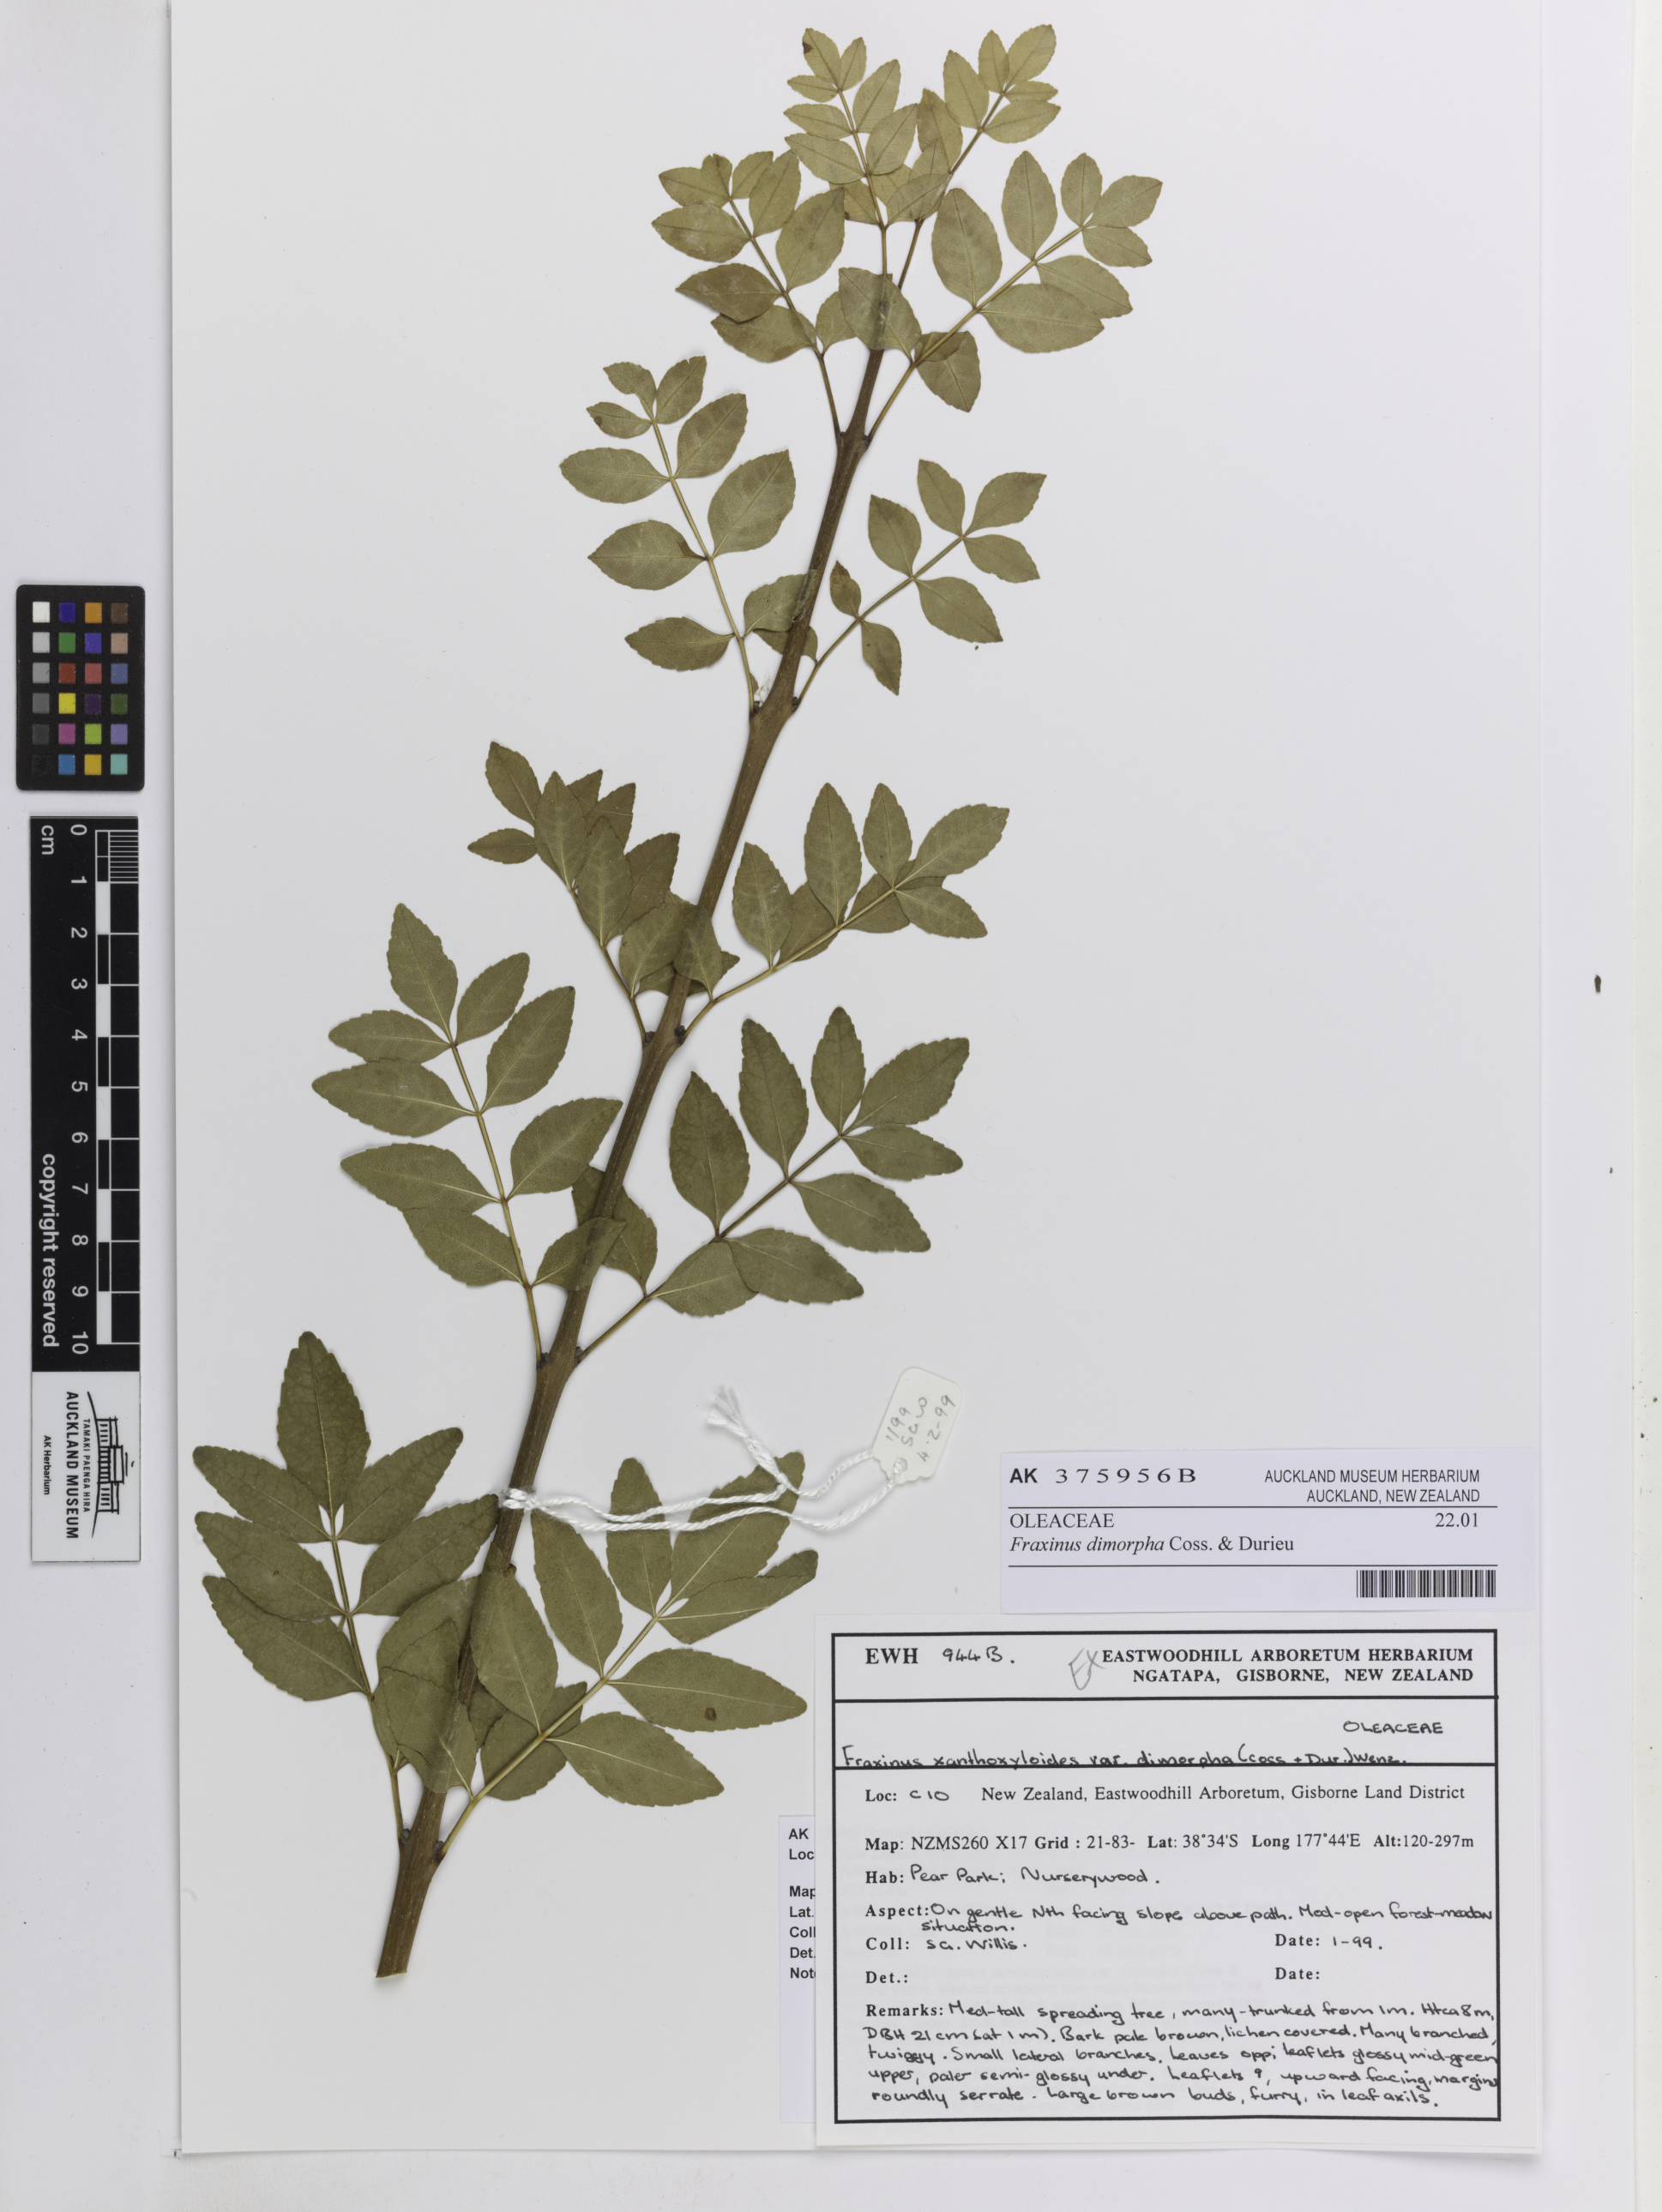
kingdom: Plantae
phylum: Tracheophyta
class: Magnoliopsida
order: Lamiales
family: Oleaceae
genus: Fraxinus
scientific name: Fraxinus dimorpha
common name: Wild ash
